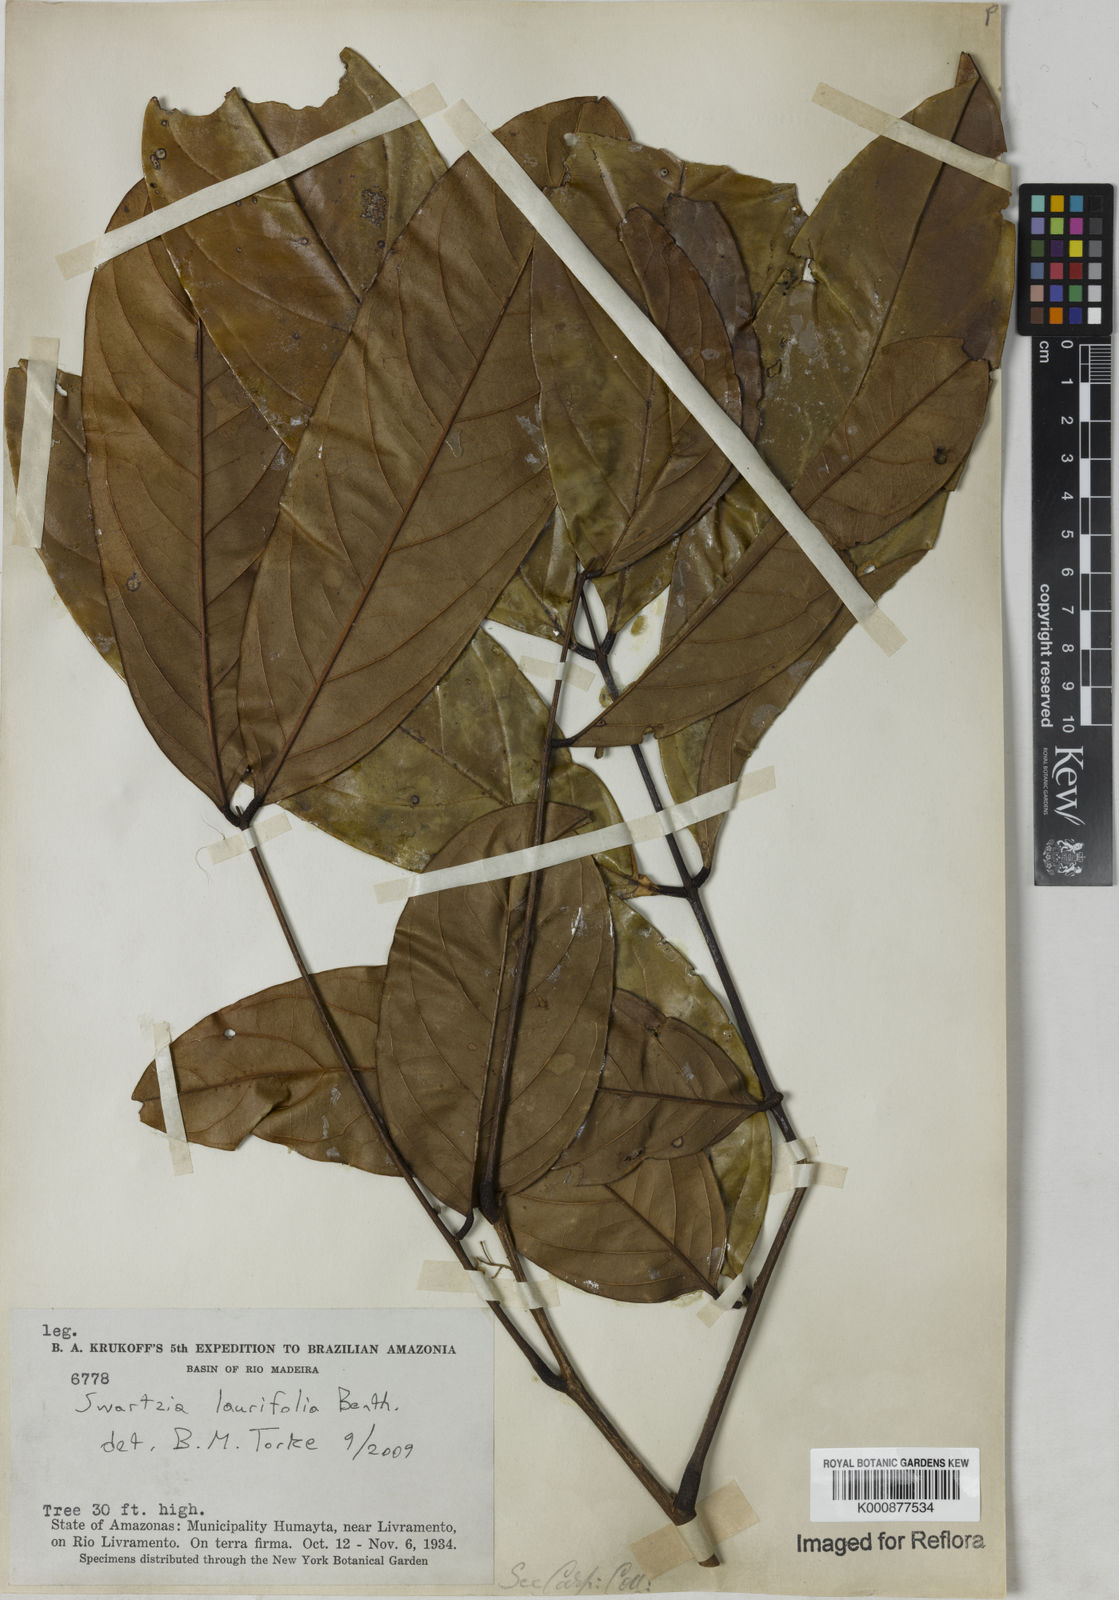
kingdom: Plantae
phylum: Tracheophyta
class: Magnoliopsida
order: Fabales
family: Fabaceae
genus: Swartzia
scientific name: Swartzia laurifolia
